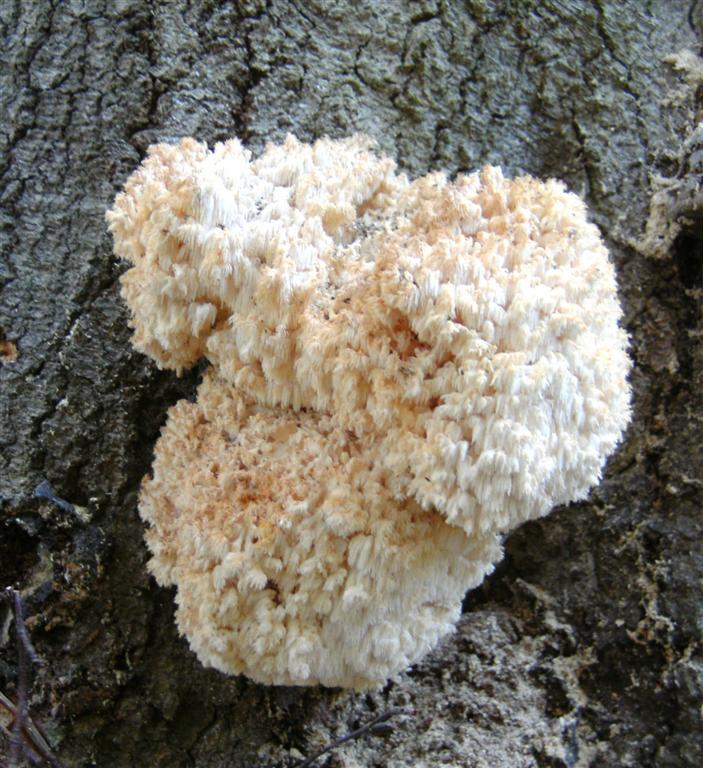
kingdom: Fungi
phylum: Basidiomycota
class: Agaricomycetes
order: Russulales
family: Hericiaceae
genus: Hericium
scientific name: Hericium coralloides
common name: koralpigsvamp
